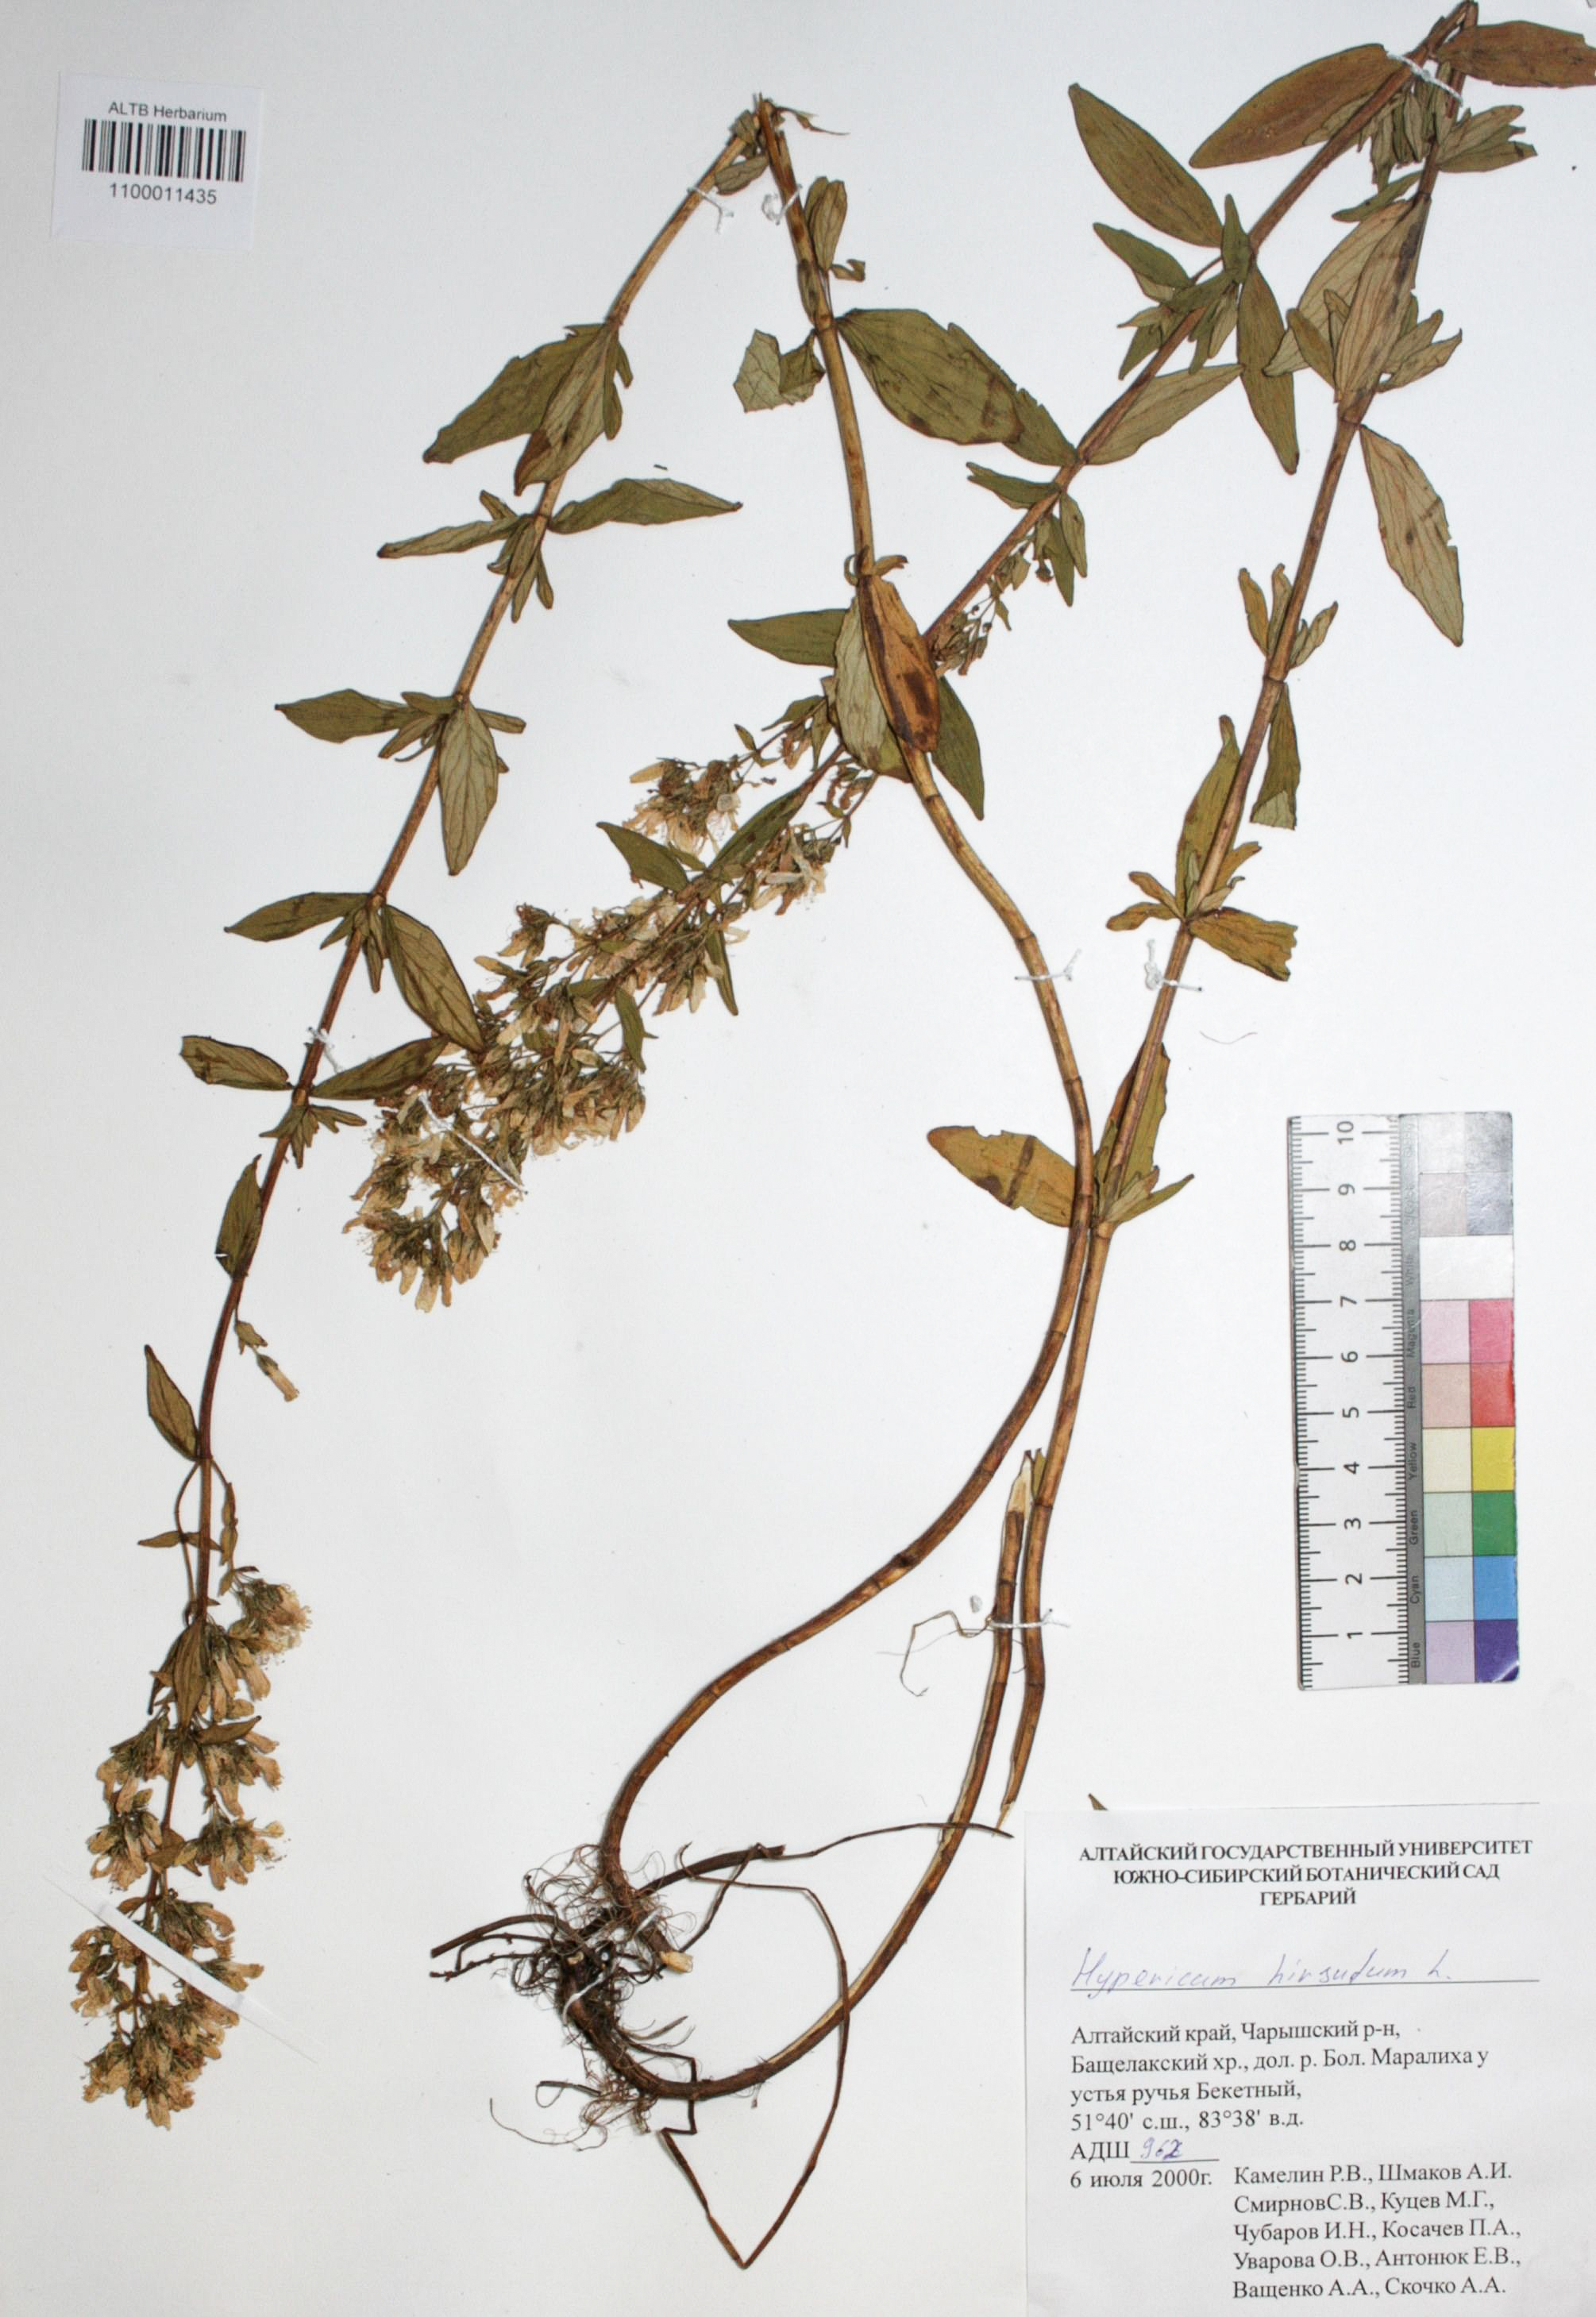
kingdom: Plantae
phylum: Tracheophyta
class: Magnoliopsida
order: Malpighiales
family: Hypericaceae
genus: Hypericum
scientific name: Hypericum hirsutum
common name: Hairy st. john's-wort
